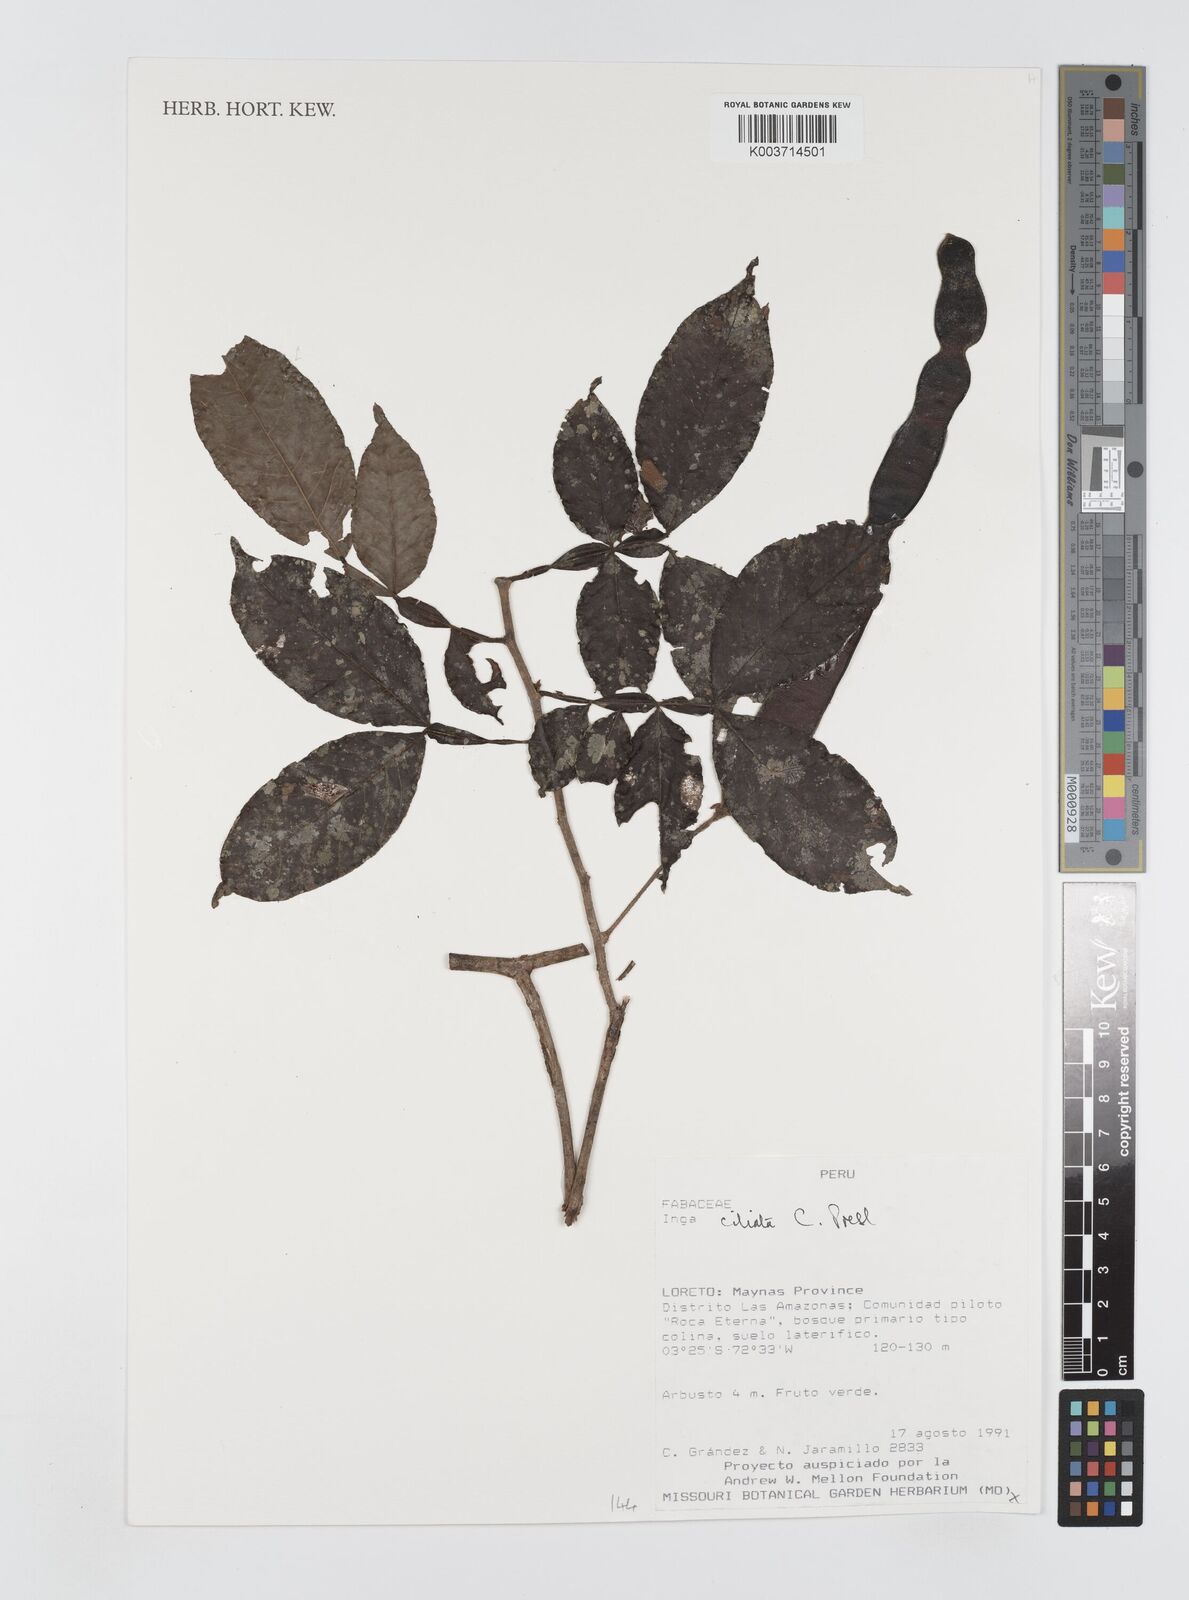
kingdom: Plantae
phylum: Tracheophyta
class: Magnoliopsida
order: Fabales
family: Fabaceae
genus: Inga
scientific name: Inga
